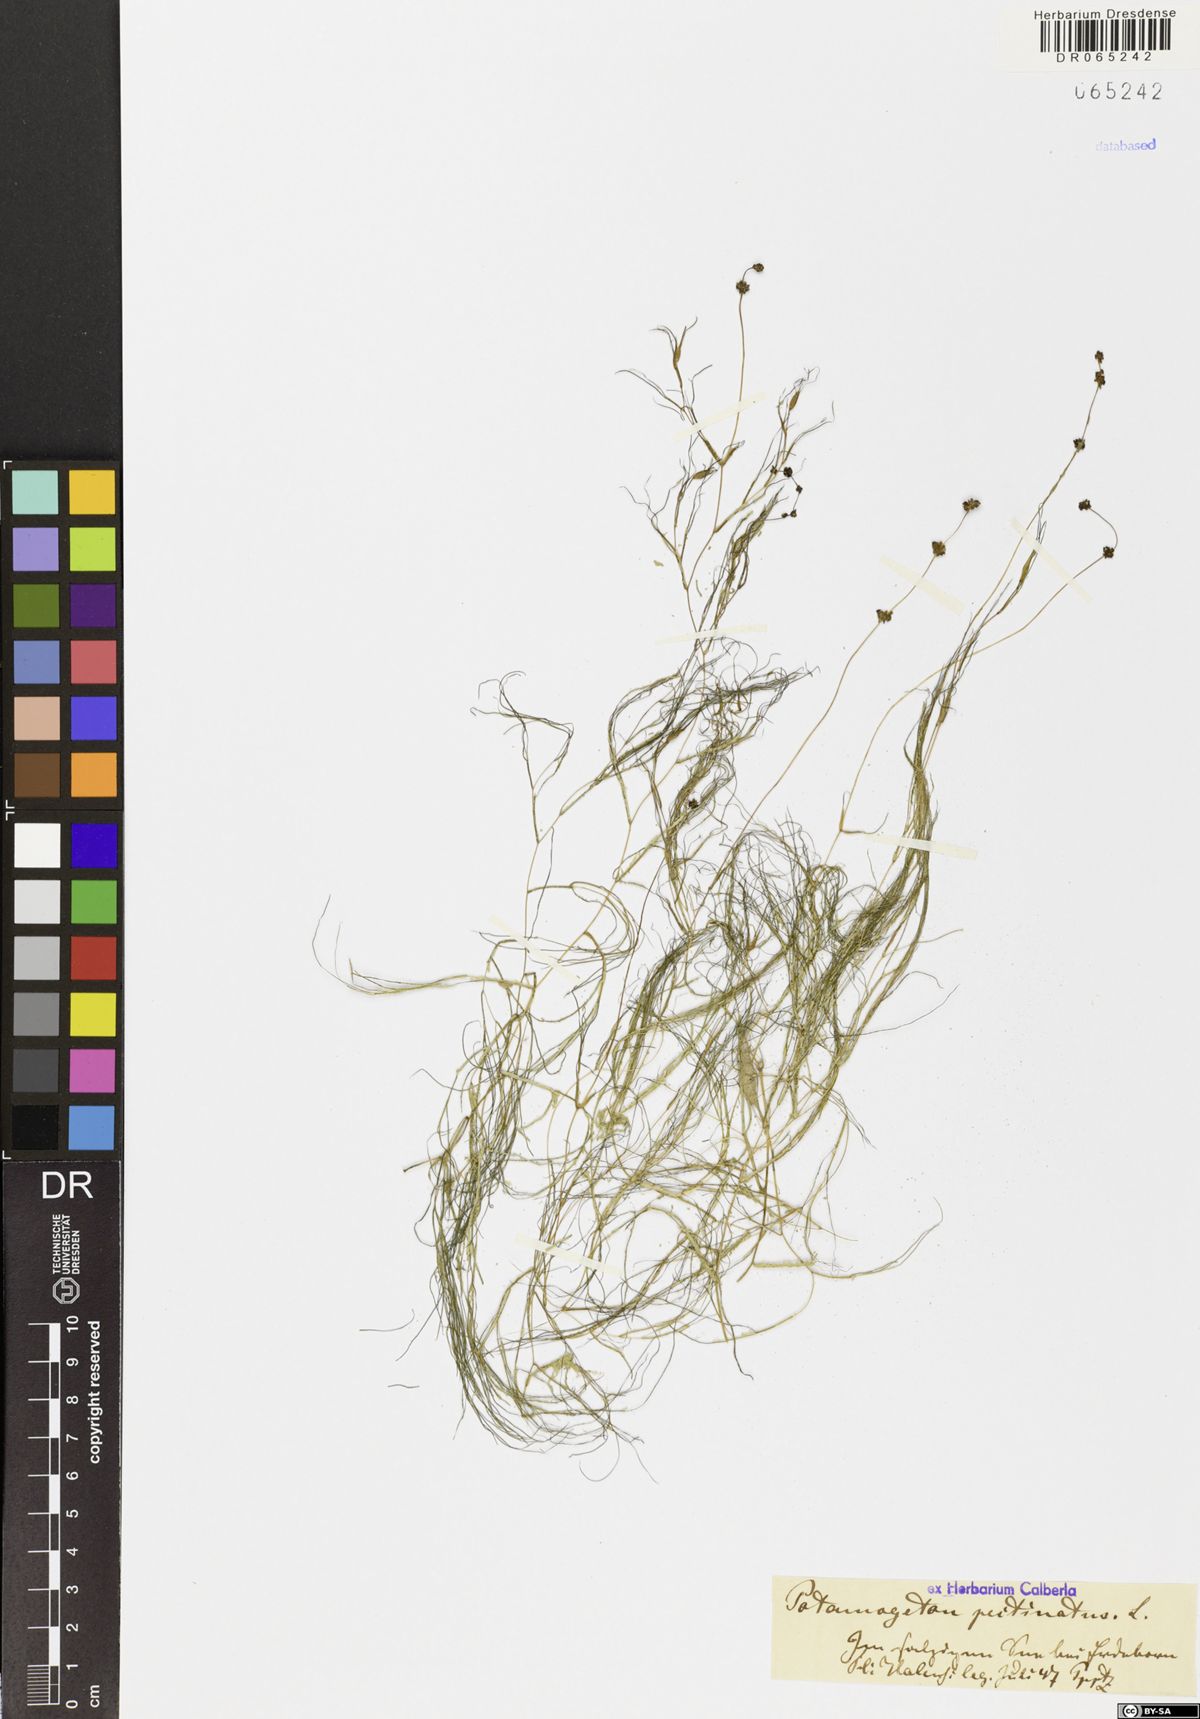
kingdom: Plantae
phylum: Tracheophyta
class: Liliopsida
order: Alismatales
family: Potamogetonaceae
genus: Stuckenia
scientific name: Stuckenia pectinata
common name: Sago pondweed
